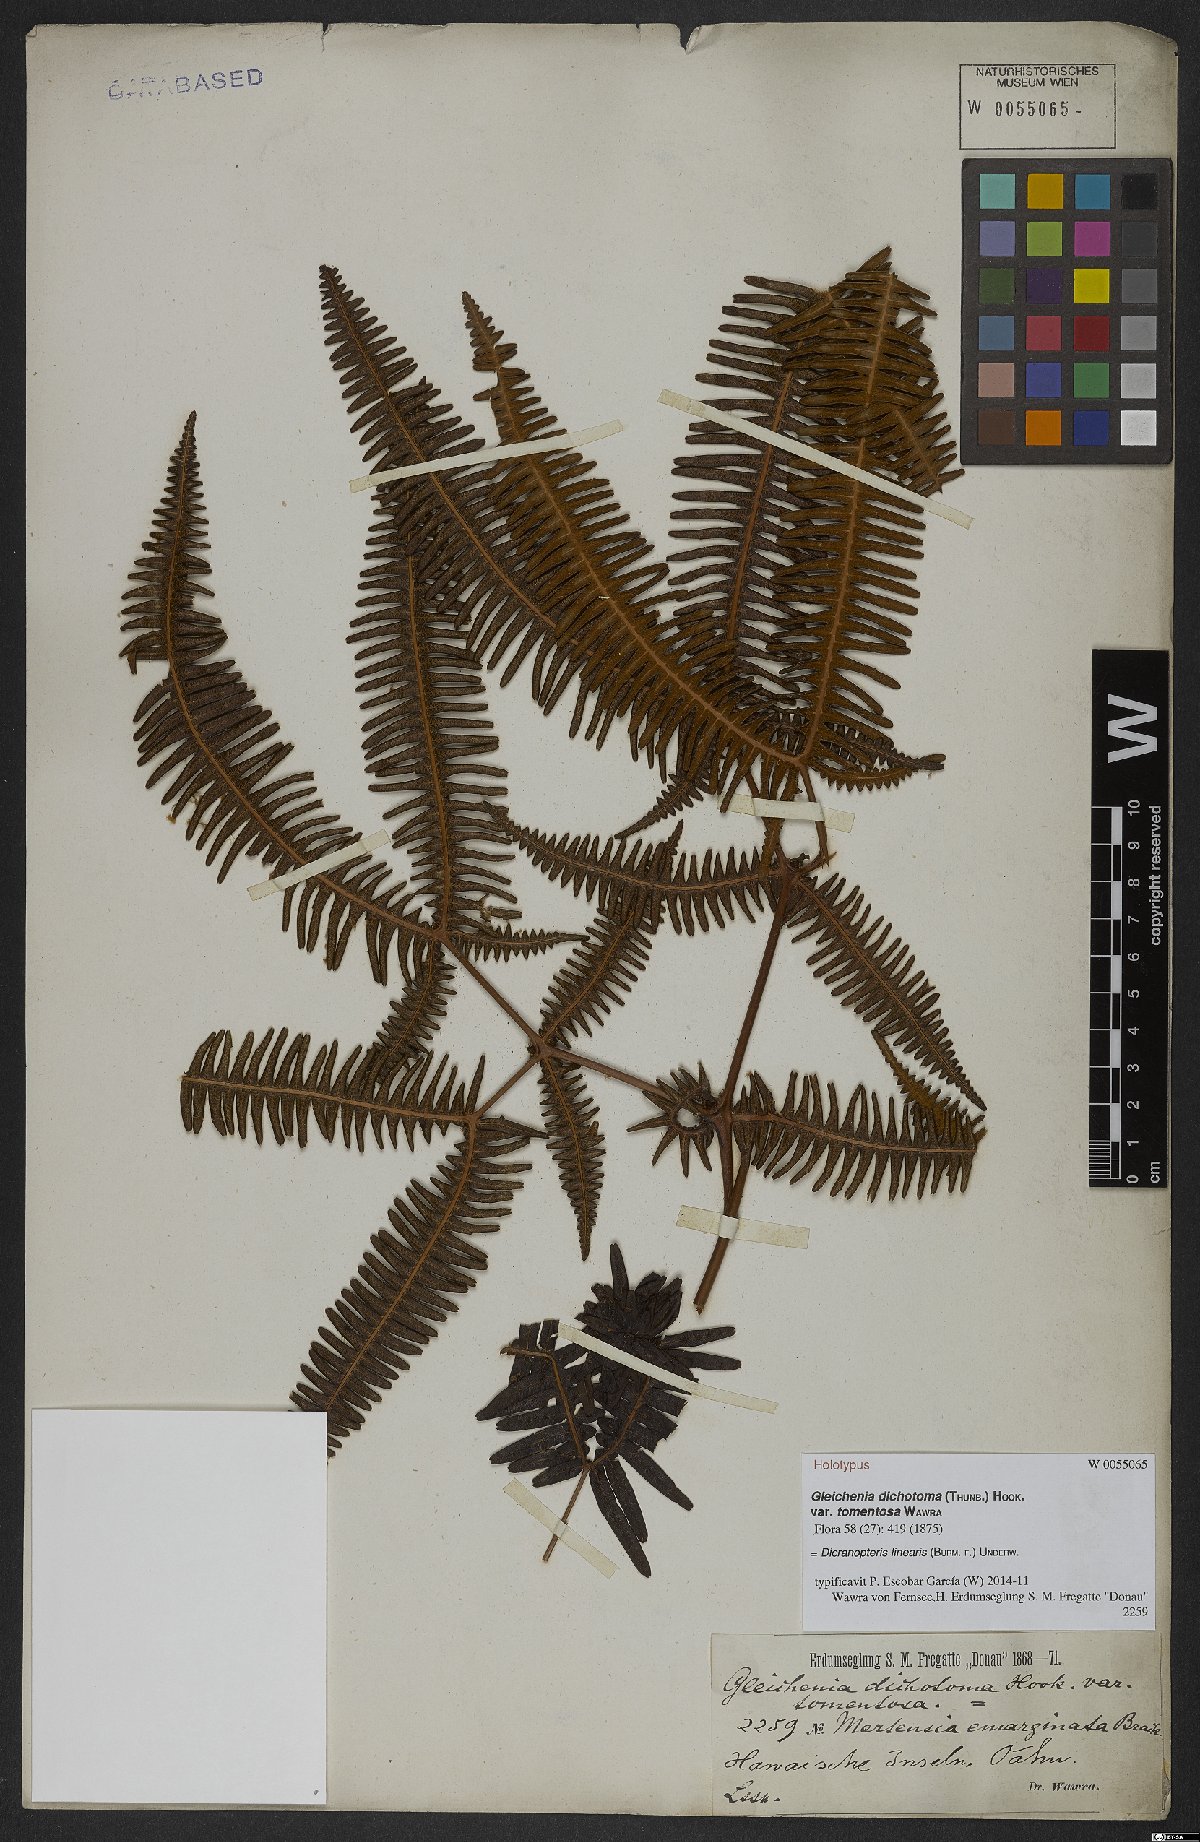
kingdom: Plantae
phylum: Tracheophyta
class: Polypodiopsida
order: Gleicheniales
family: Gleicheniaceae
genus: Dicranopteris
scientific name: Dicranopteris linearis
